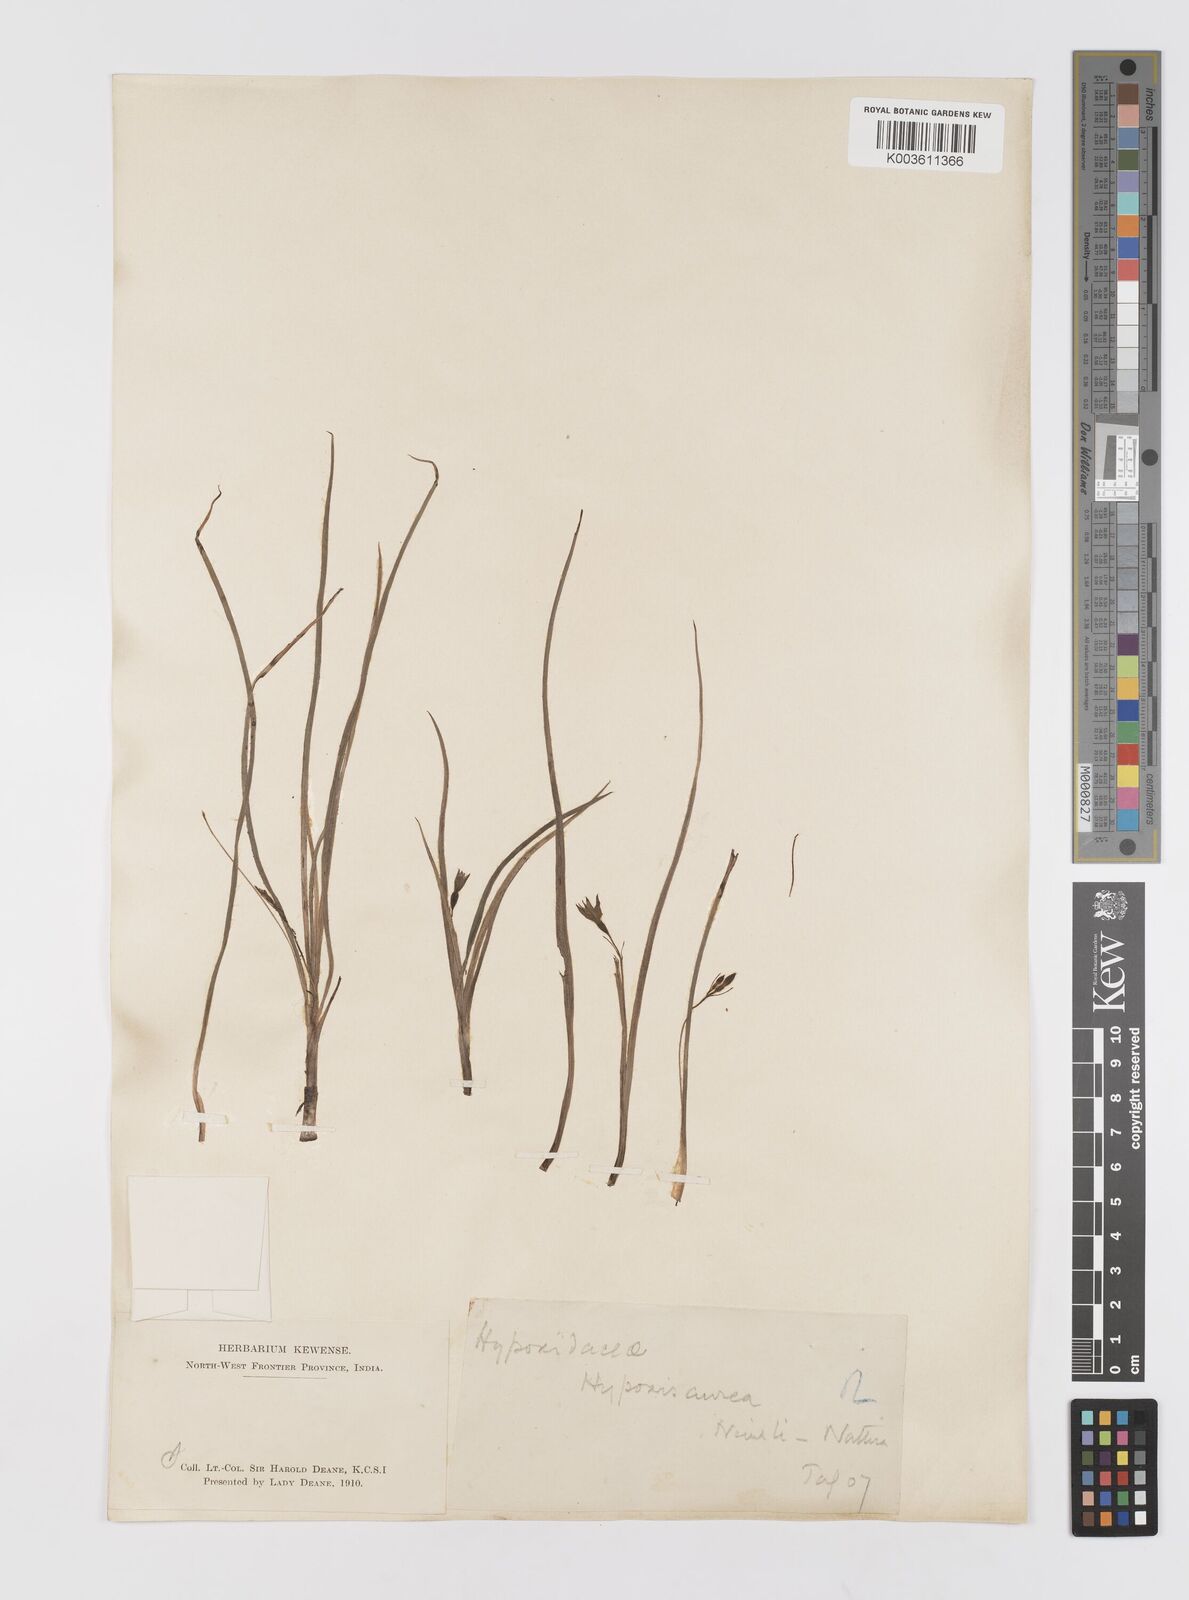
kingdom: Plantae
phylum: Tracheophyta
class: Liliopsida
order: Asparagales
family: Hypoxidaceae
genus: Hypoxis
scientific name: Hypoxis aurea
